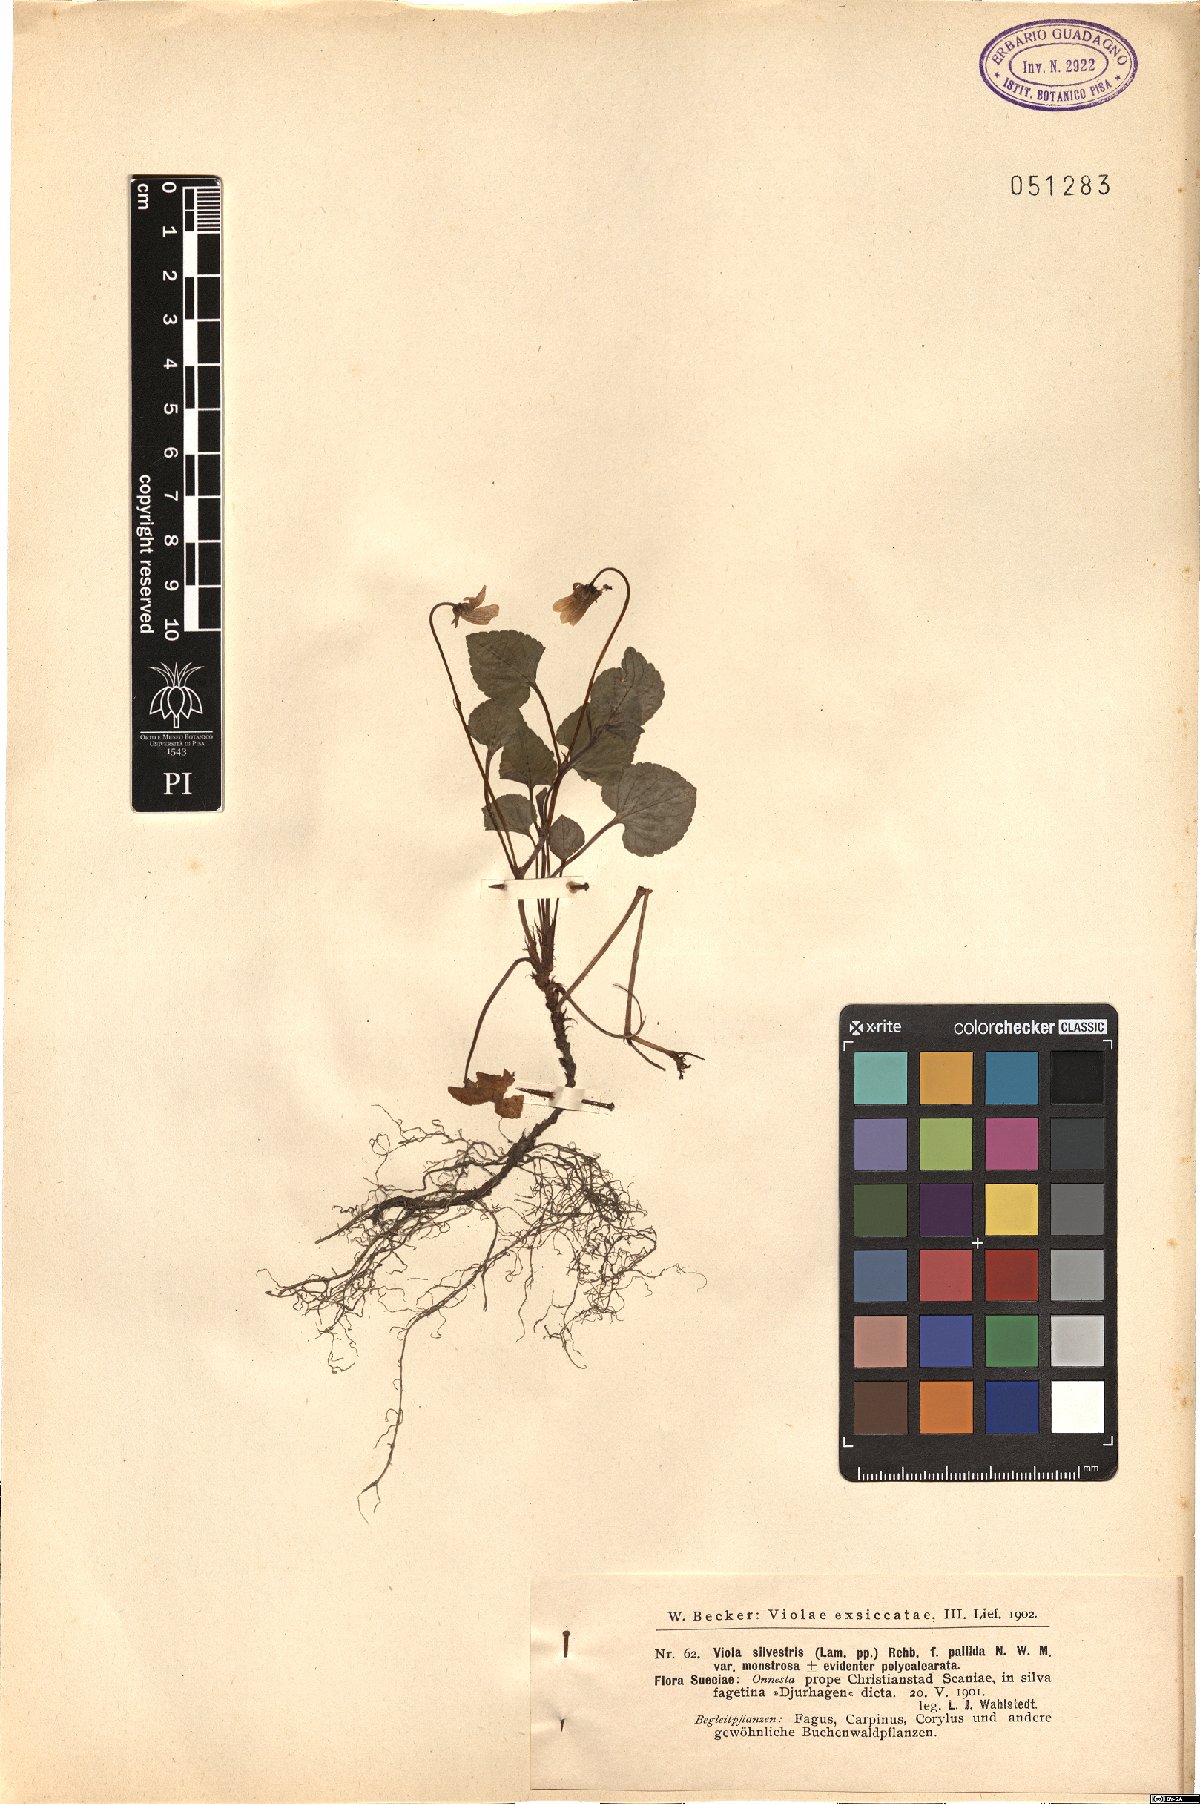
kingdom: Plantae
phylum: Tracheophyta
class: Magnoliopsida
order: Malpighiales
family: Violaceae
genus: Viola
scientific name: Viola
